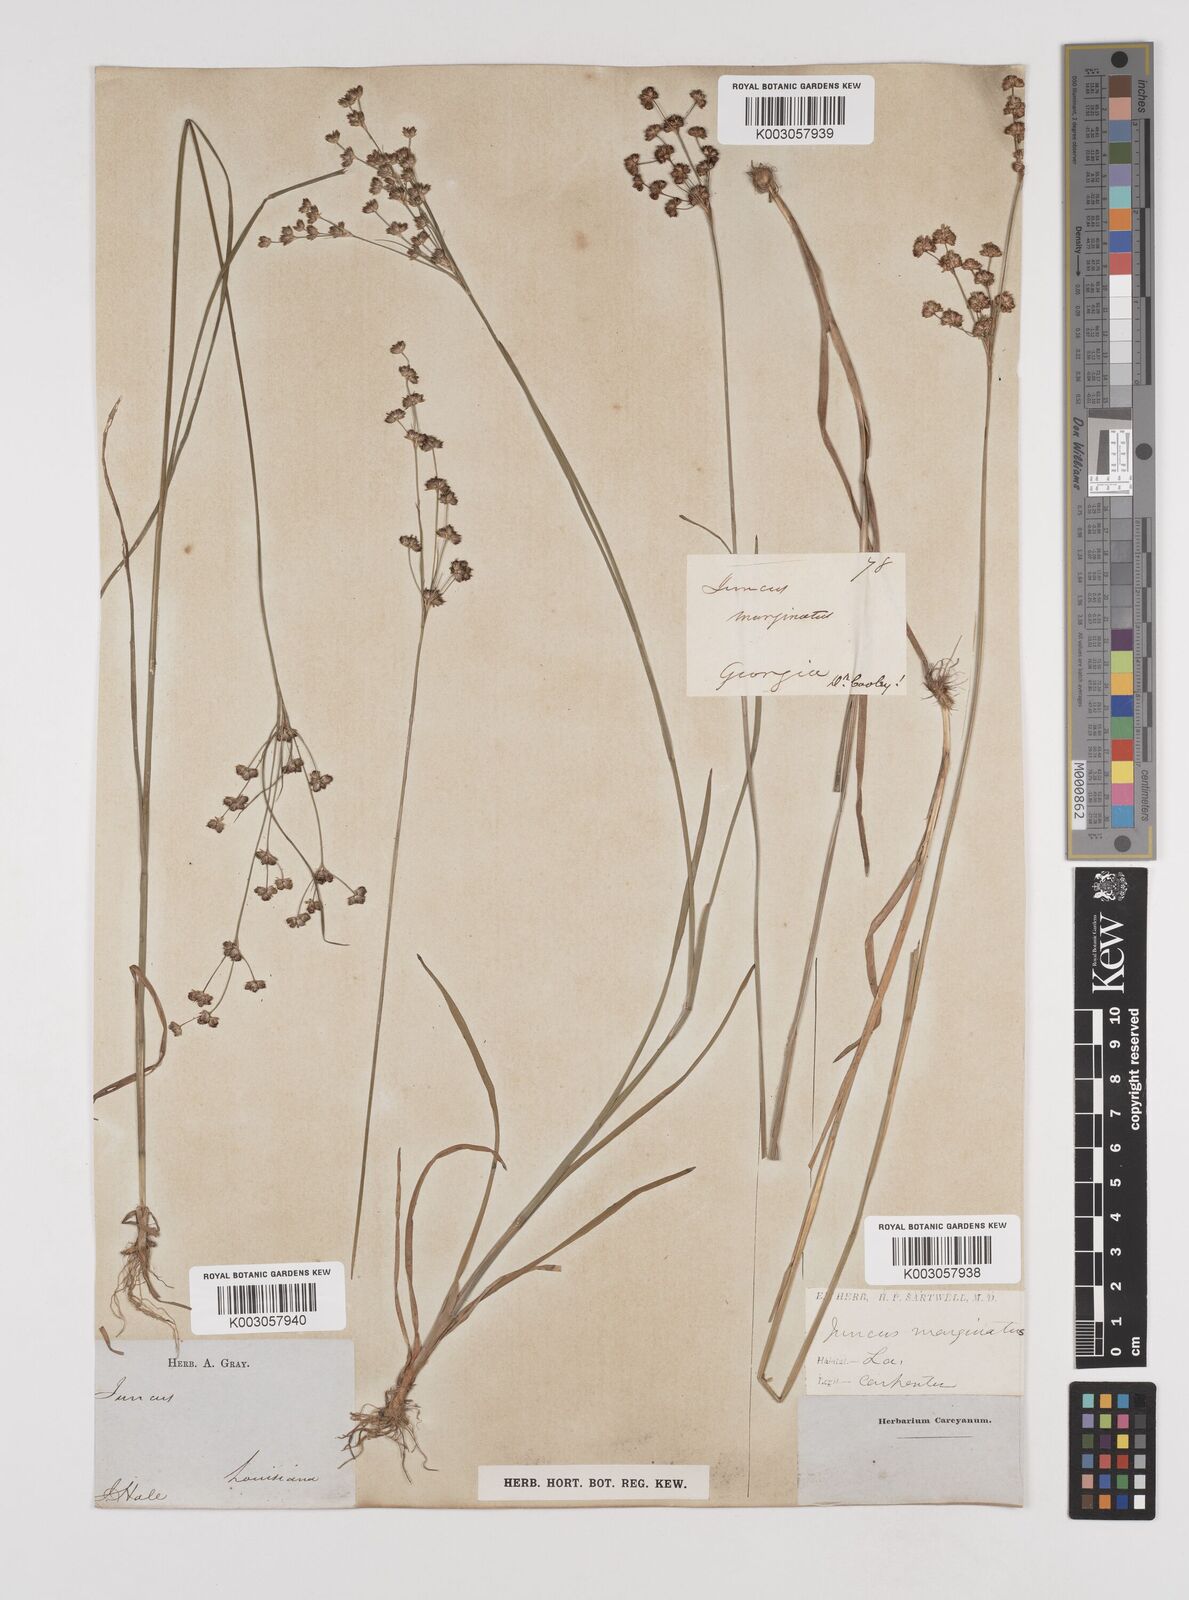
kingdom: Plantae
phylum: Tracheophyta
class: Liliopsida
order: Poales
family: Juncaceae
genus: Juncus
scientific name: Juncus marginatus
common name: Grass-leaf rush
